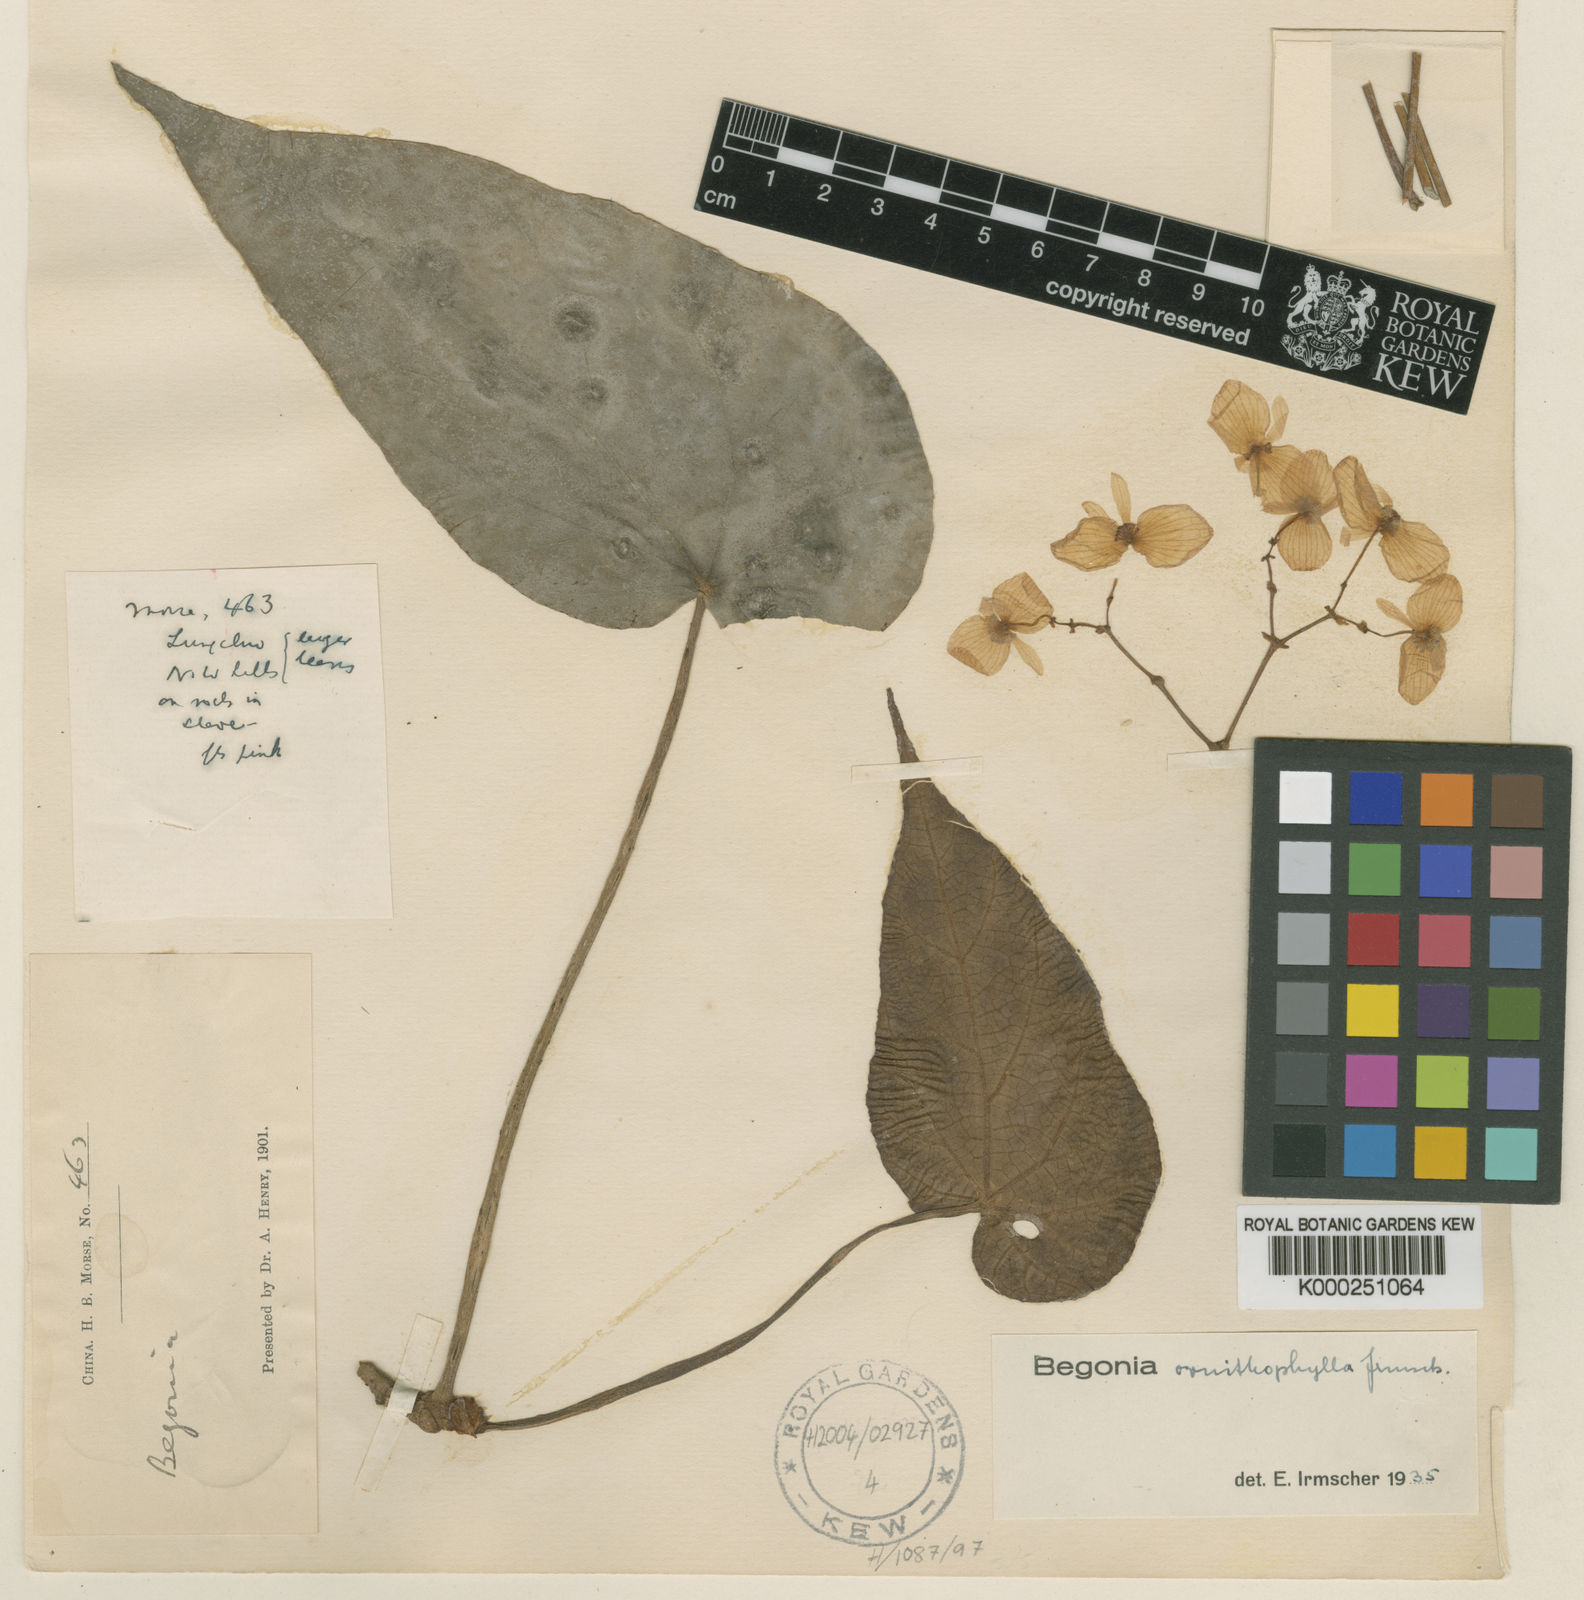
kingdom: Plantae
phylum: Tracheophyta
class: Magnoliopsida
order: Cucurbitales
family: Begoniaceae
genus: Begonia
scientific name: Begonia ornithophylla
